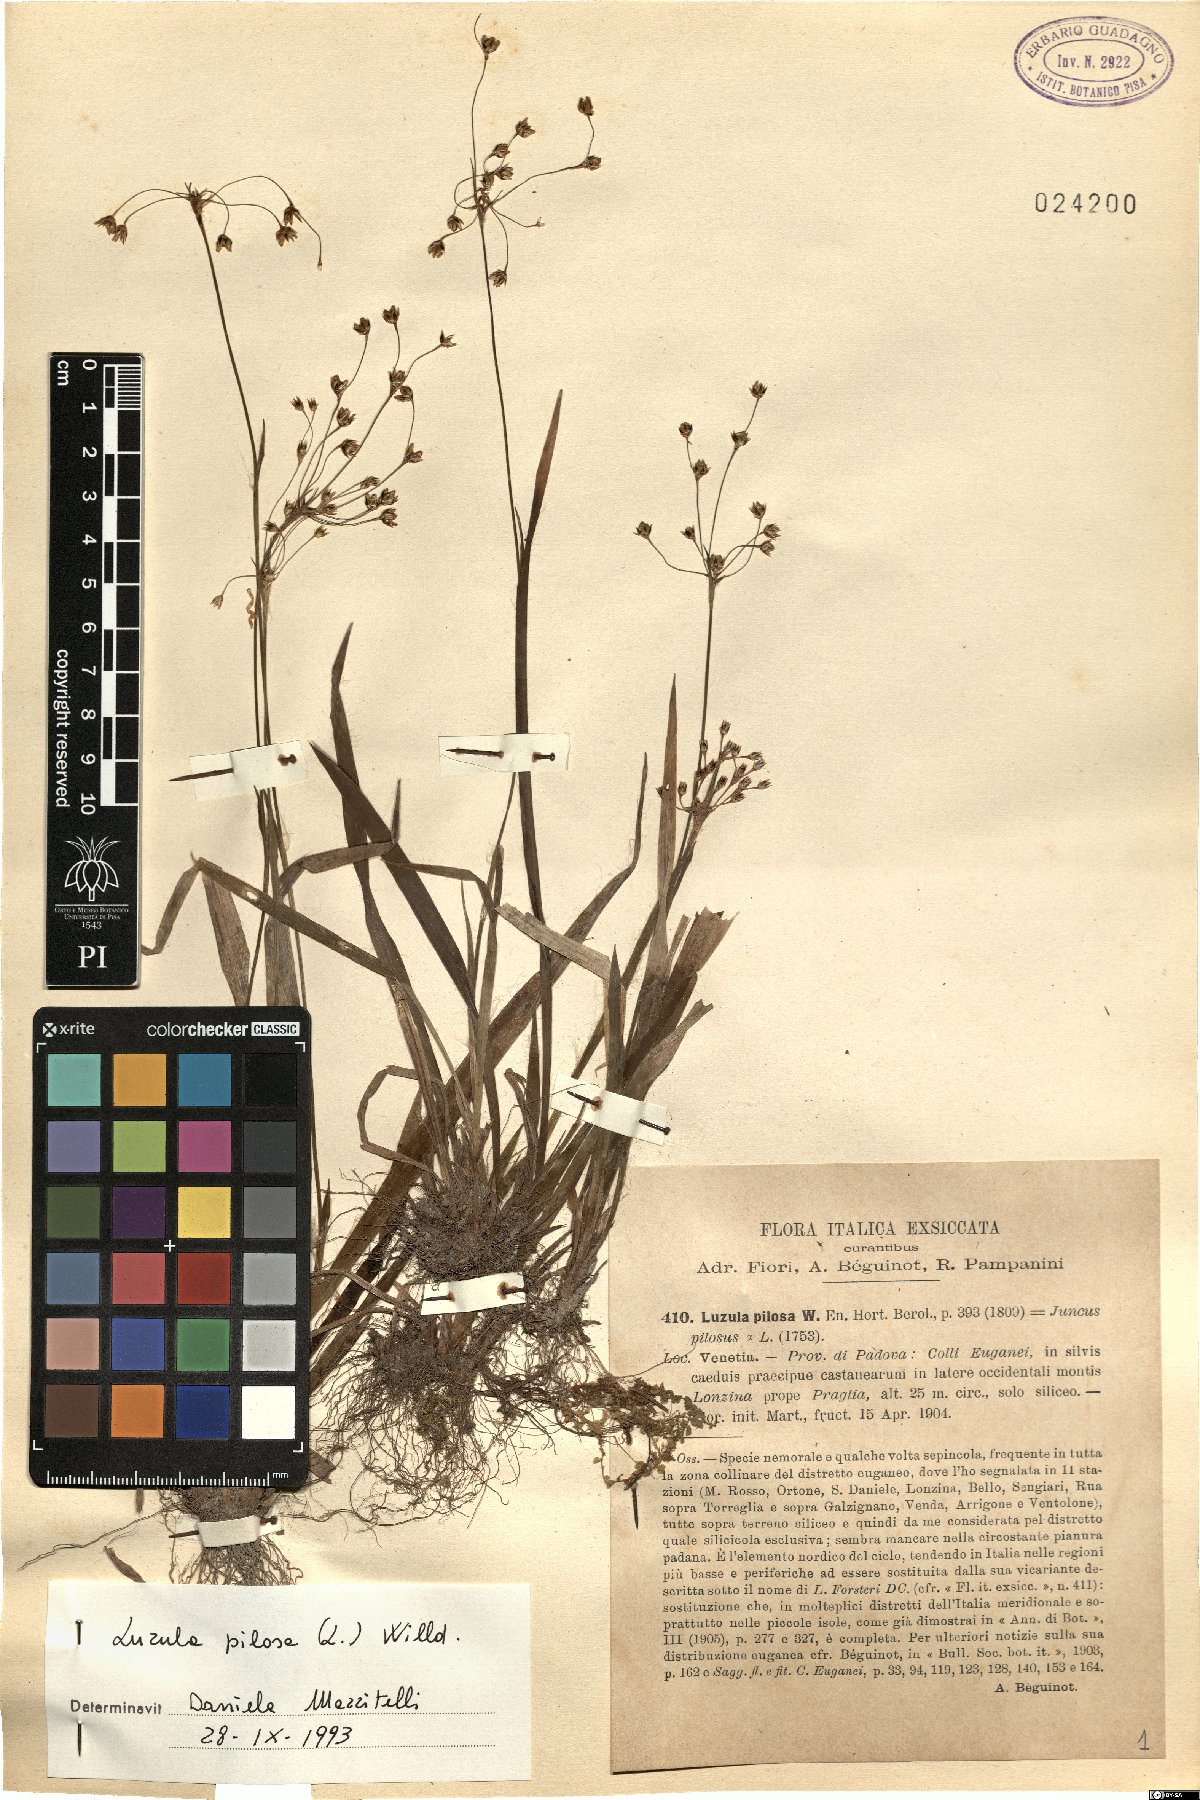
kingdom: Plantae
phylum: Tracheophyta
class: Liliopsida
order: Poales
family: Juncaceae
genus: Luzula
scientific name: Luzula pilosa
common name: Hairy wood-rush
